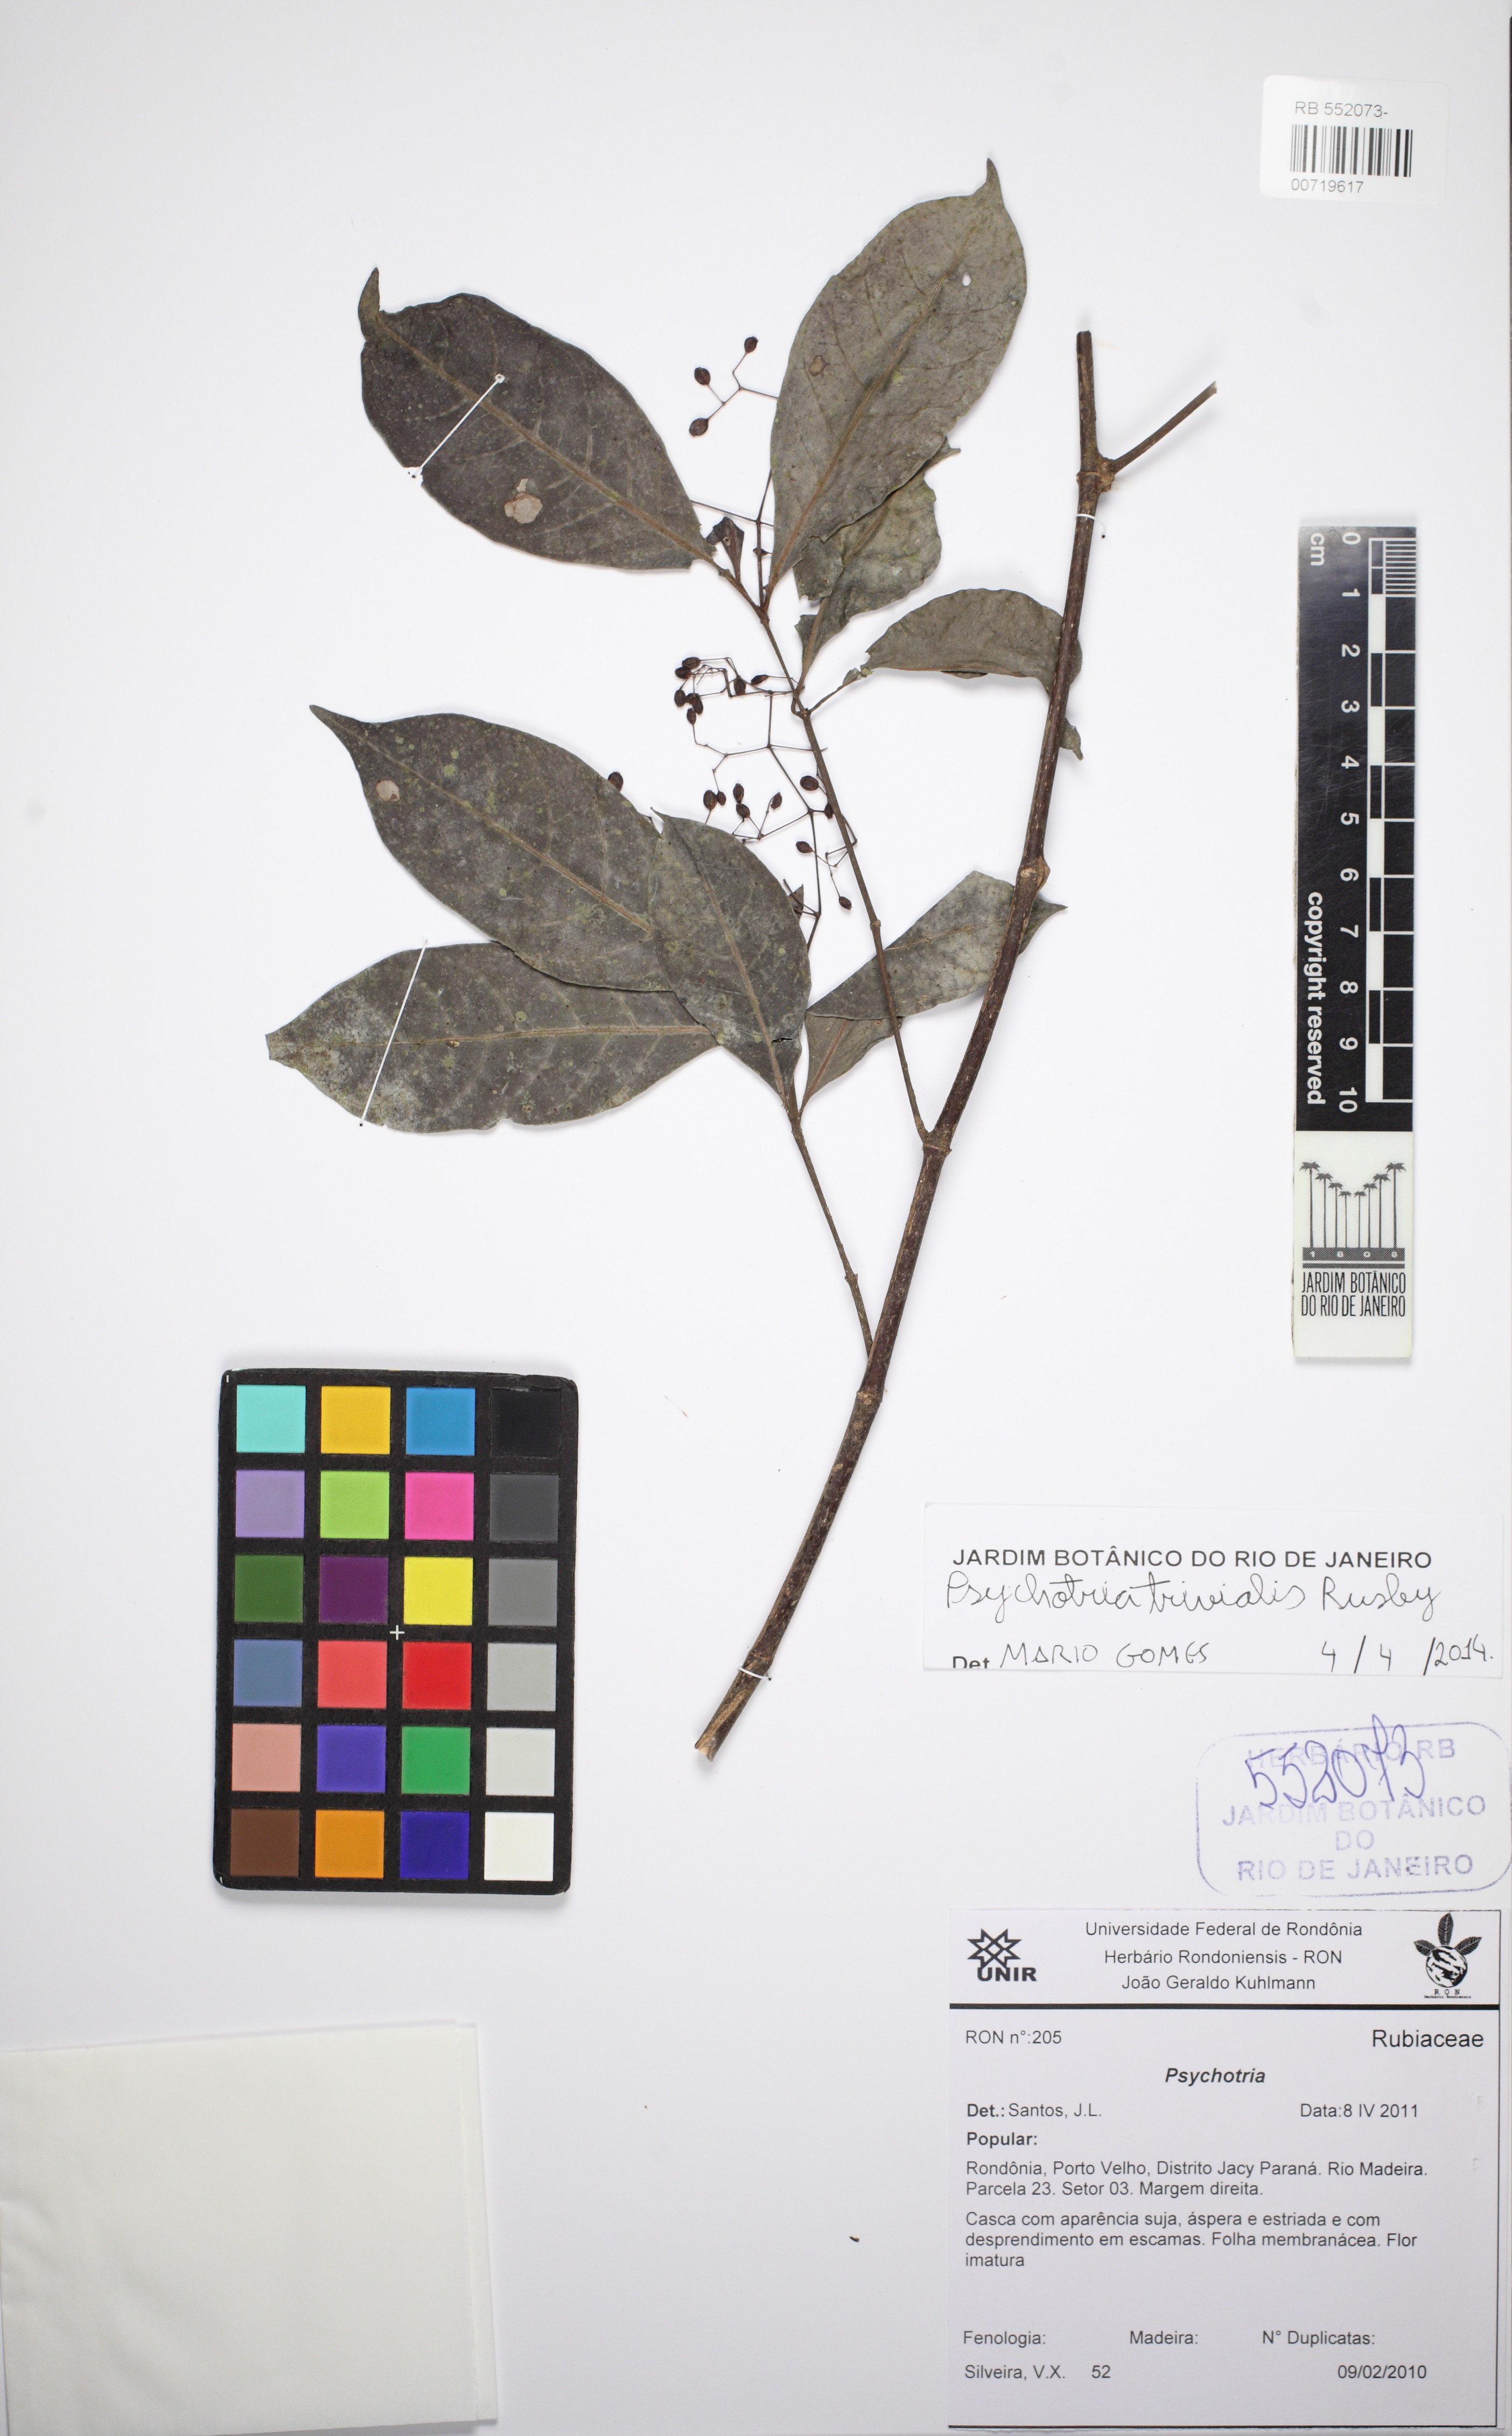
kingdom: Plantae
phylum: Tracheophyta
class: Magnoliopsida
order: Gentianales
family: Rubiaceae
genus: Psychotria
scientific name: Psychotria trivialis
